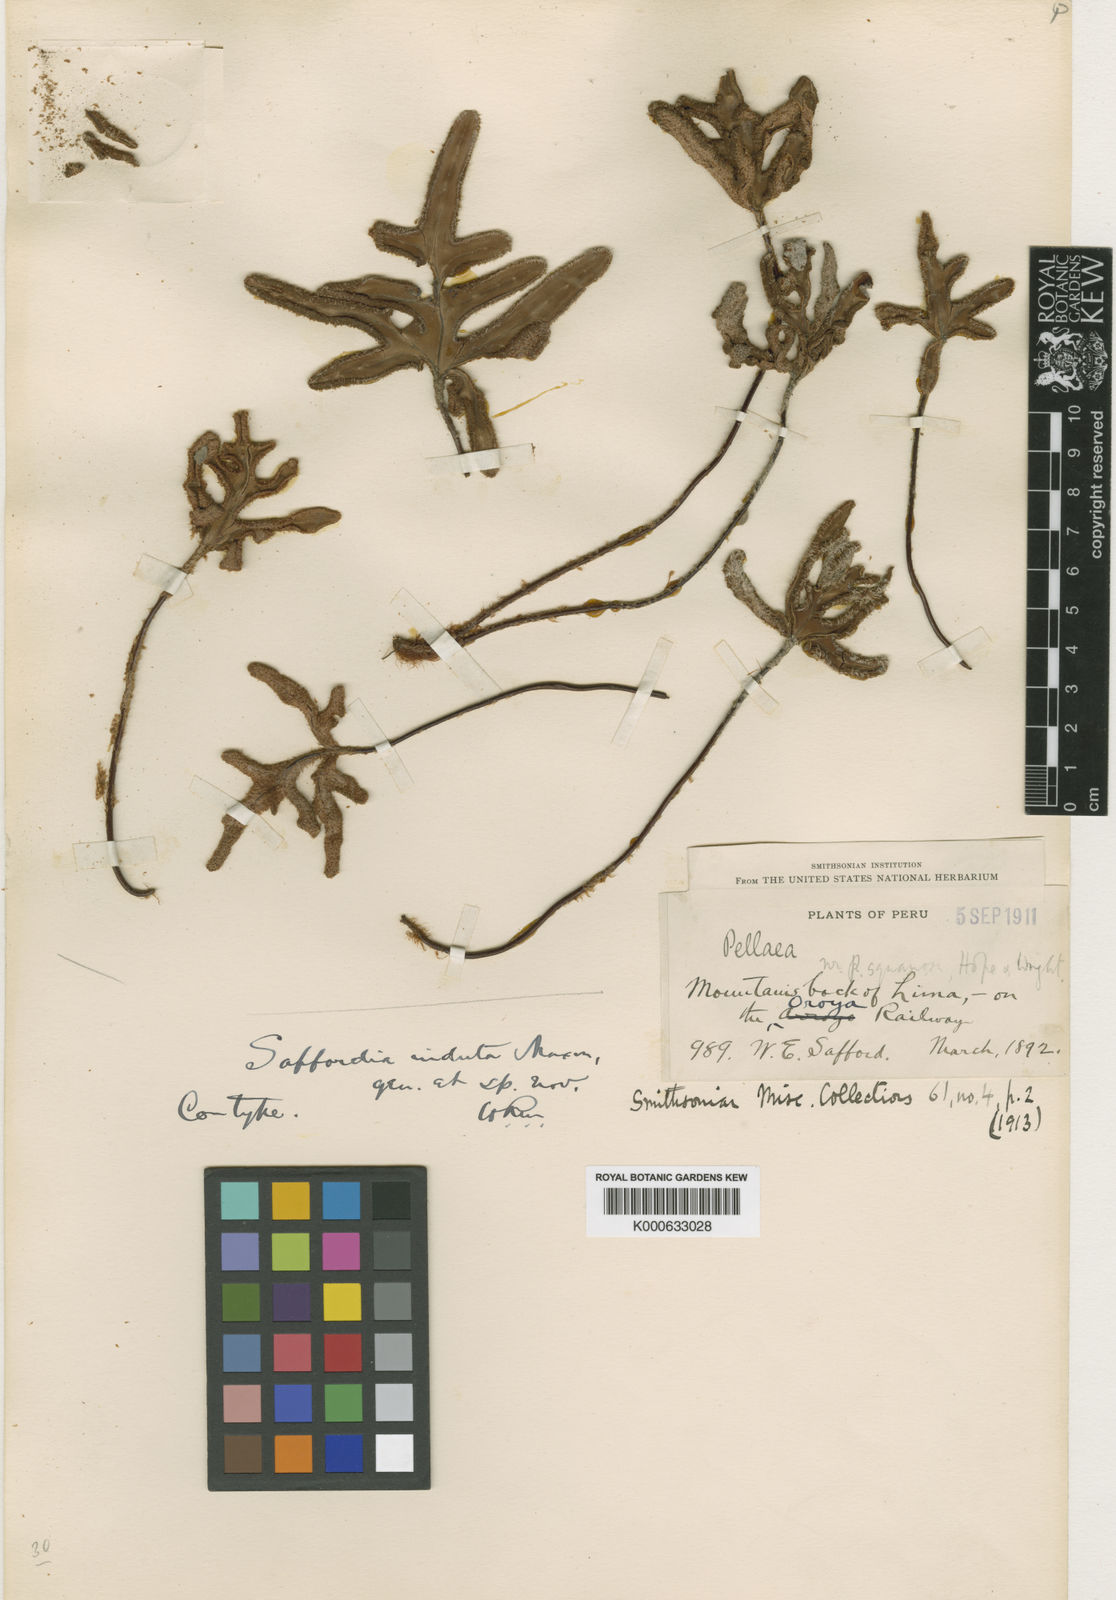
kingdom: Plantae
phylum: Tracheophyta
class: Polypodiopsida
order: Polypodiales
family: Pteridaceae
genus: Trachypteris
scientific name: Trachypteris induta
